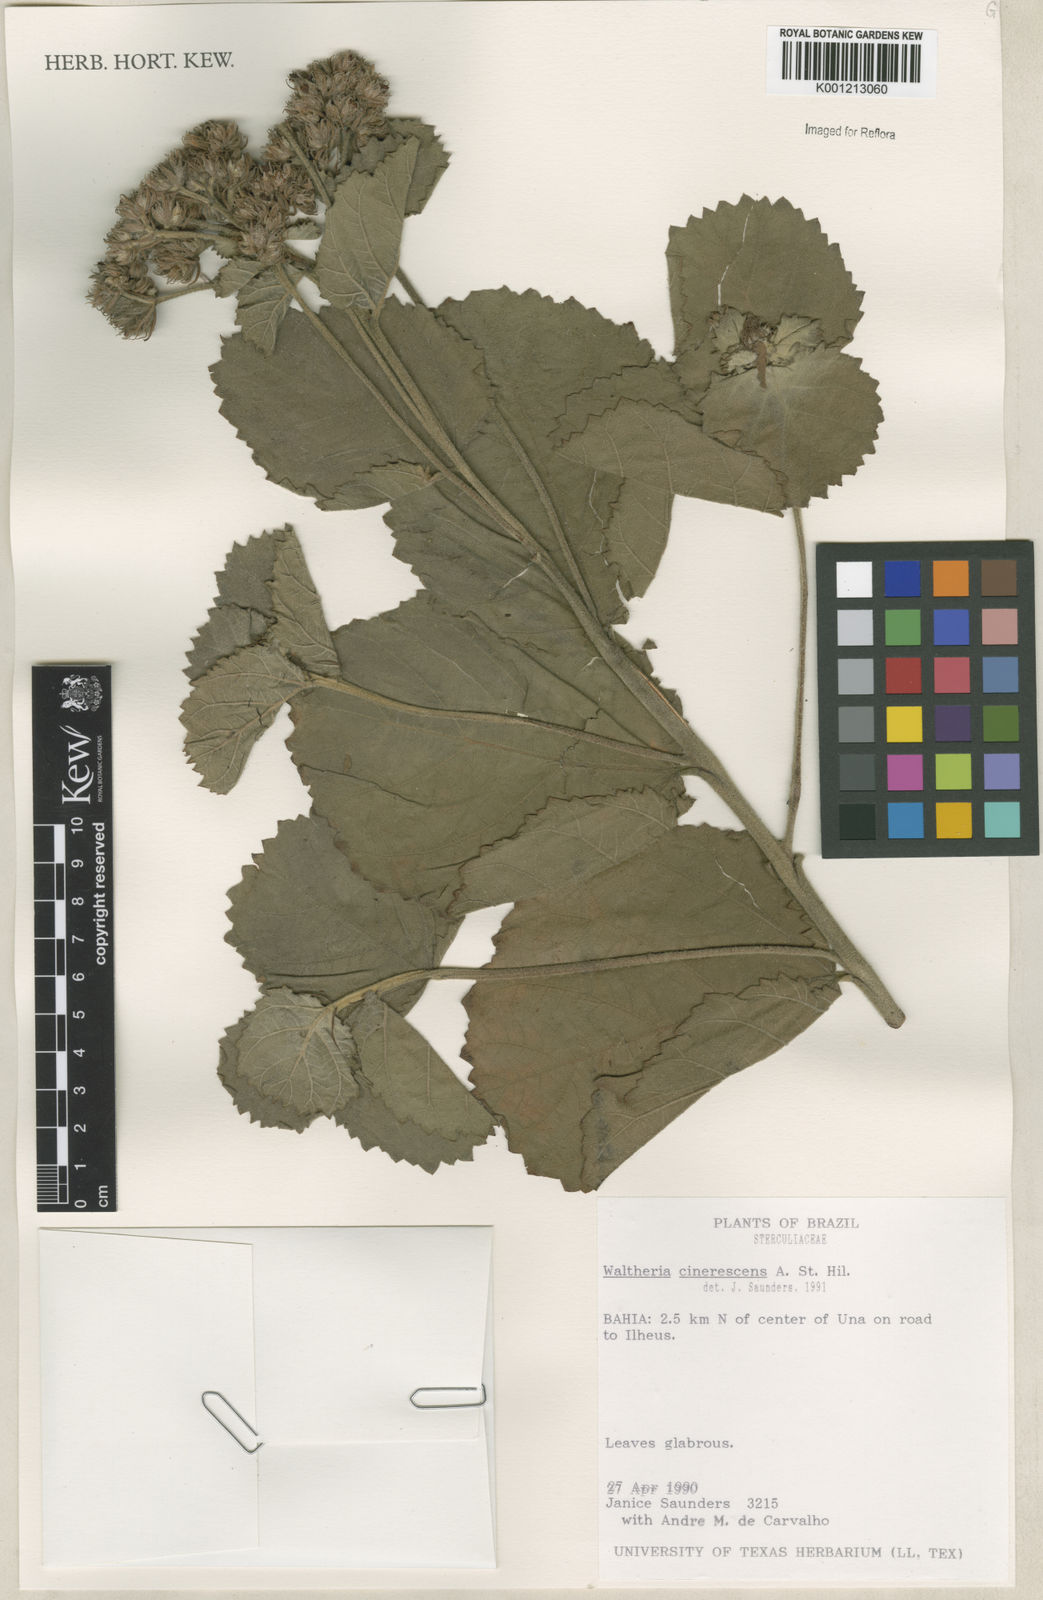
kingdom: Plantae
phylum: Tracheophyta
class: Magnoliopsida
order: Malvales
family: Malvaceae
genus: Waltheria
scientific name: Waltheria cinerescens
